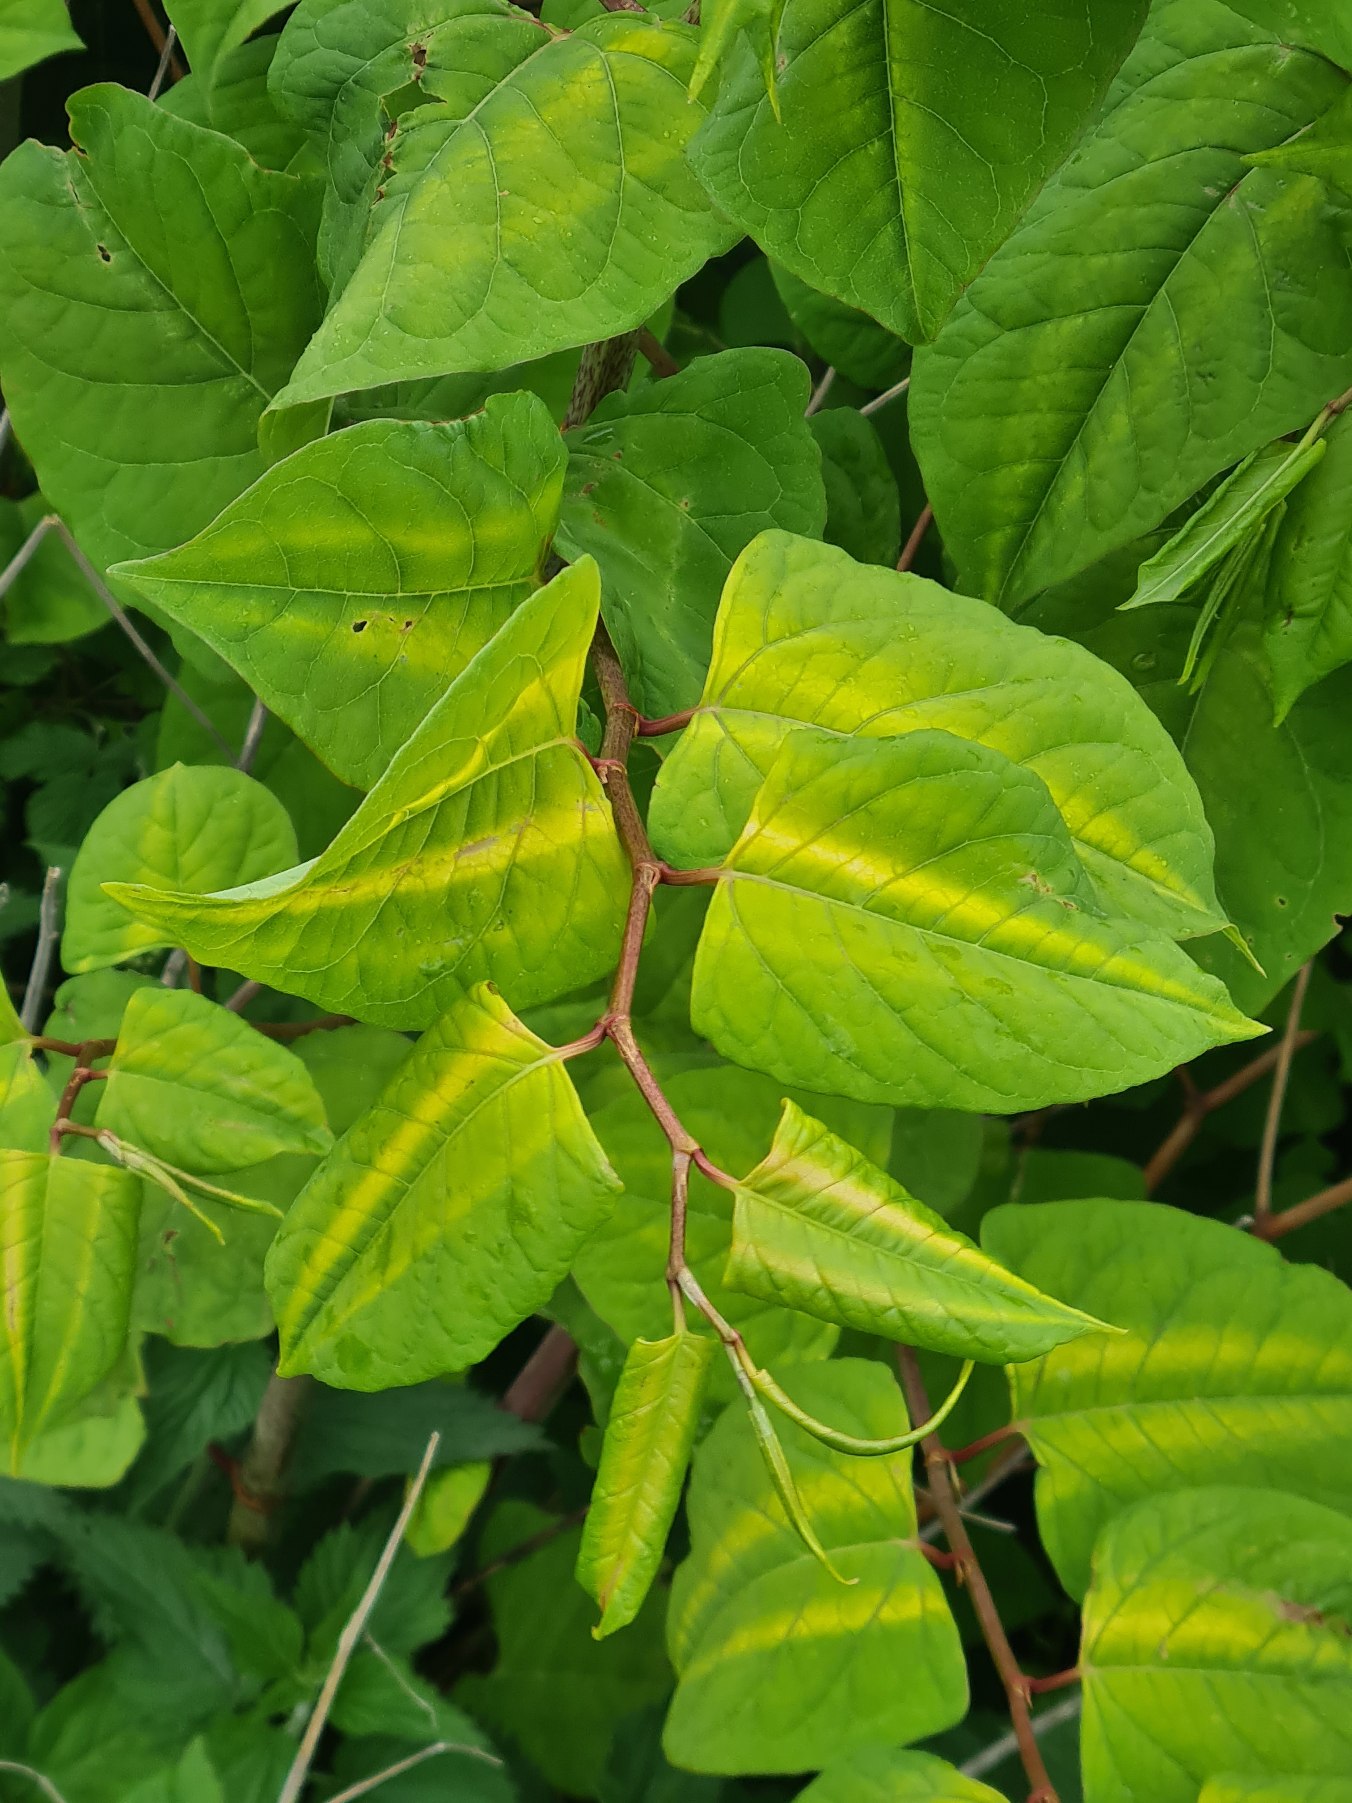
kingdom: Plantae
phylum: Tracheophyta
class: Magnoliopsida
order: Caryophyllales
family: Polygonaceae
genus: Reynoutria
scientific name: Reynoutria
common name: Pileurt (Reynoutria-slægten)
